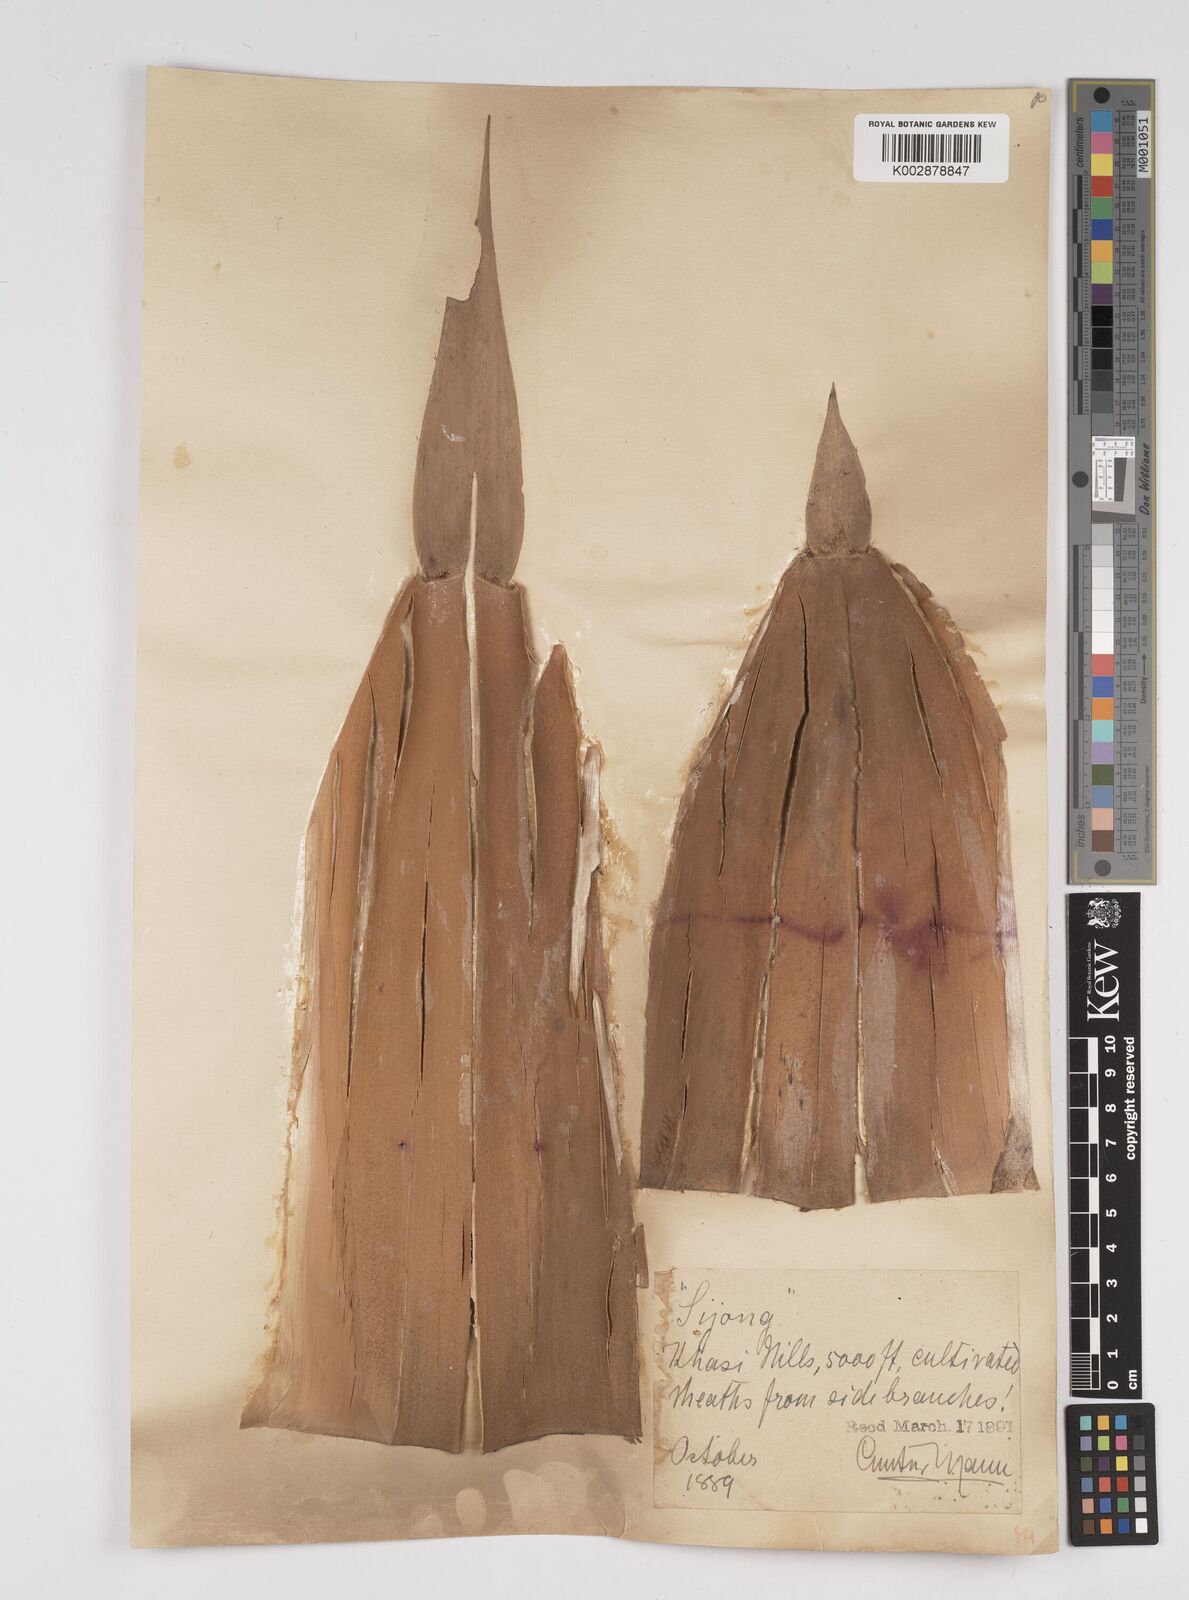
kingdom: Plantae
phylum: Tracheophyta
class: Liliopsida
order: Poales
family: Poaceae
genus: Dendrocalamus
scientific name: Dendrocalamus hookeri
